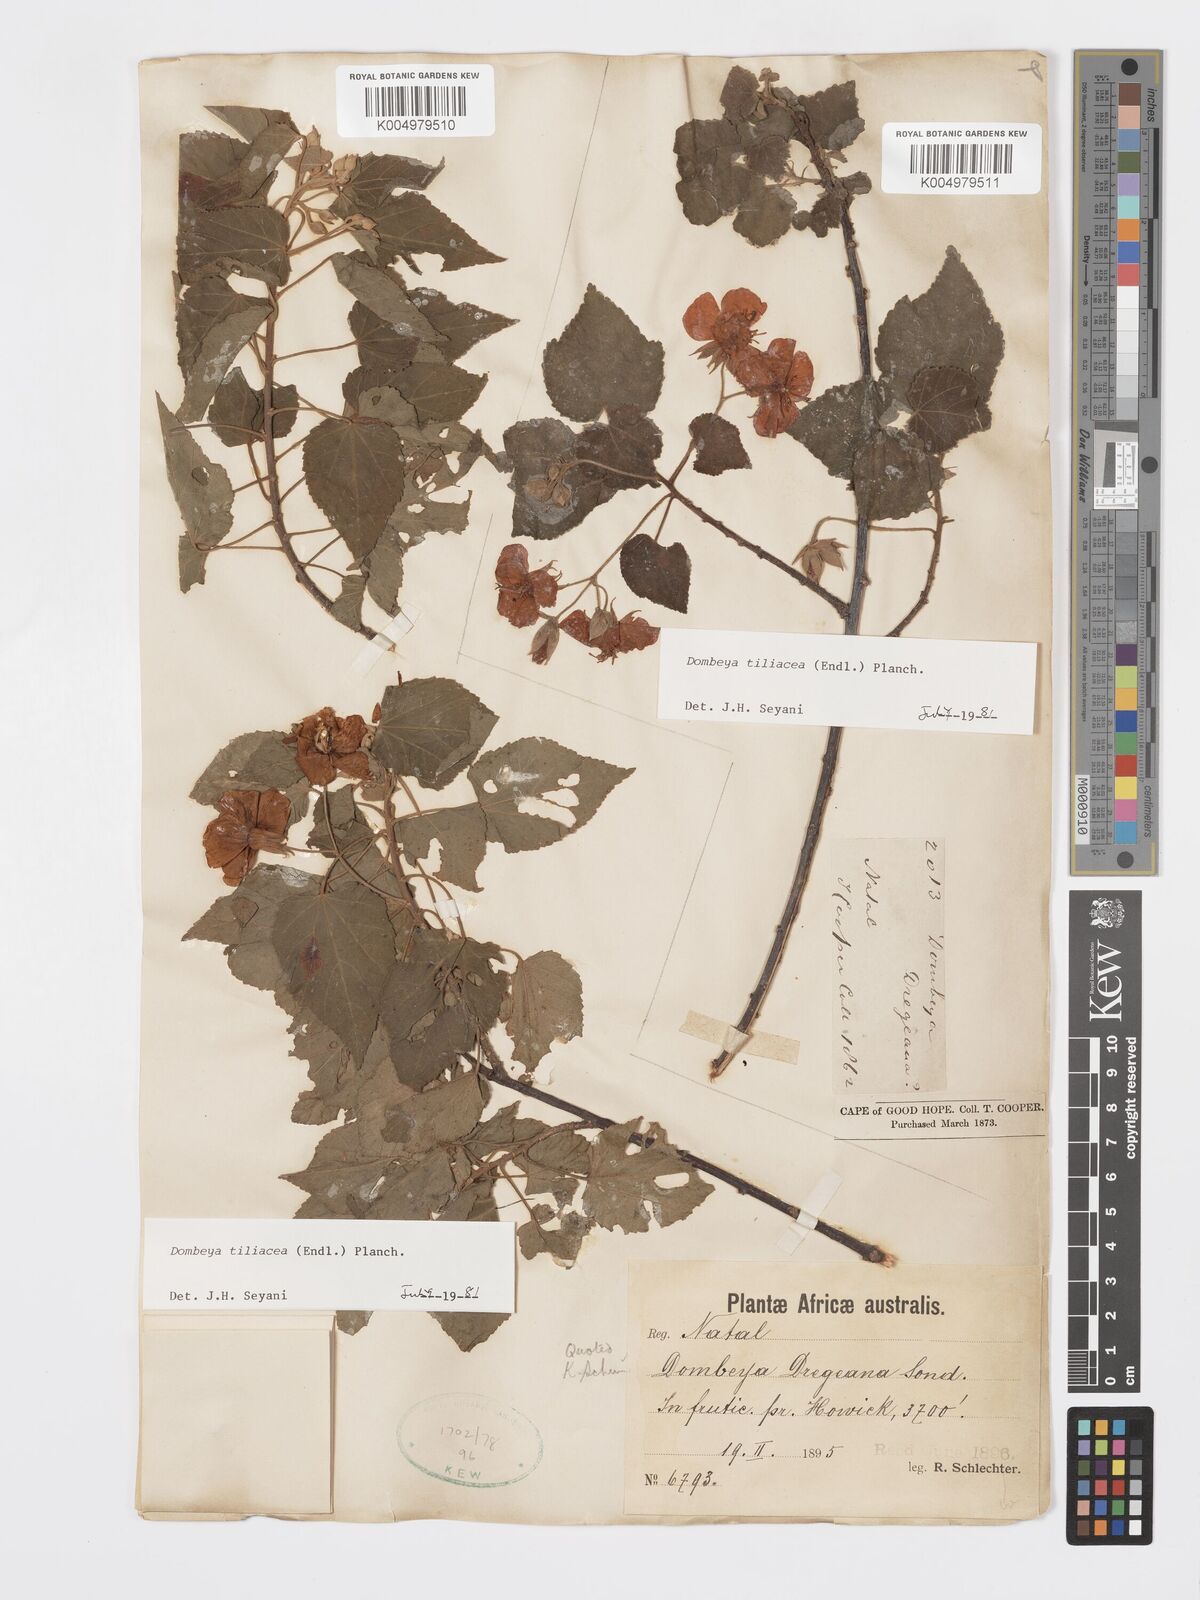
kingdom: Plantae
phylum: Tracheophyta
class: Magnoliopsida
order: Malvales
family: Malvaceae
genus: Dombeya
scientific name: Dombeya tiliacea
